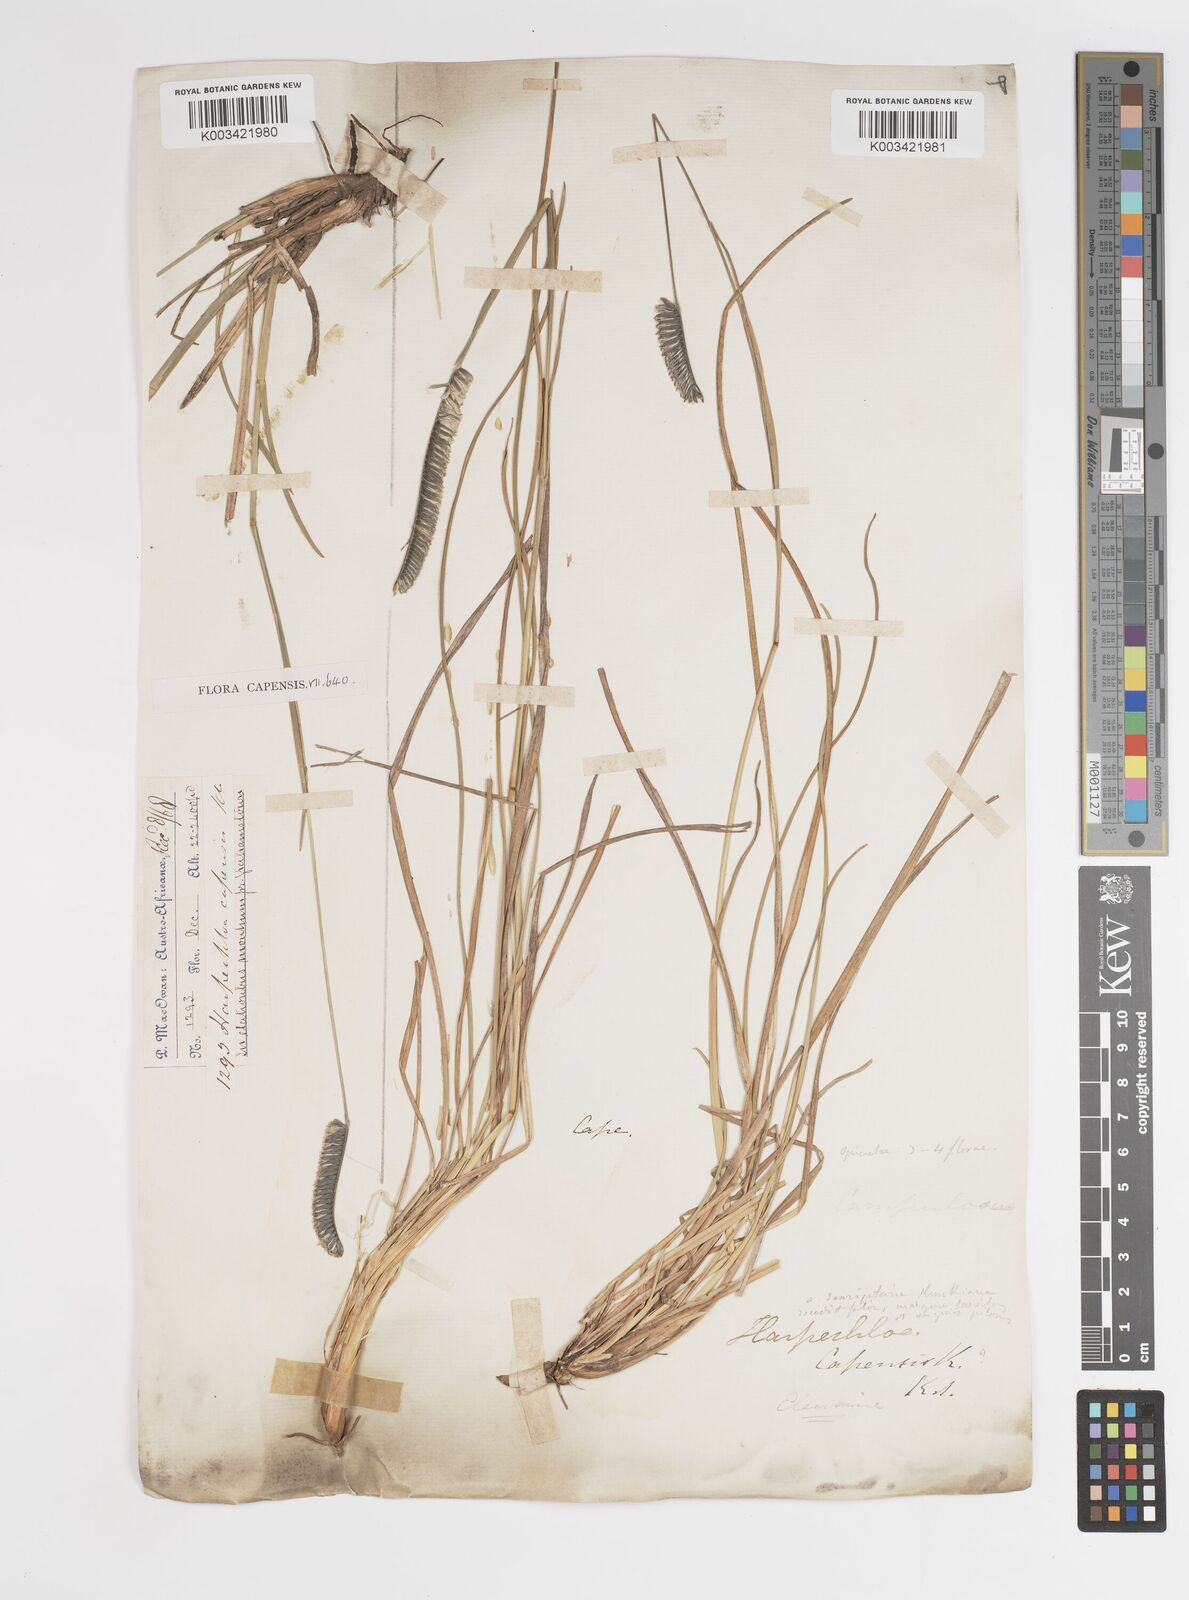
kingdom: Plantae
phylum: Tracheophyta
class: Liliopsida
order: Poales
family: Poaceae
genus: Harpochloa
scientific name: Harpochloa falx
